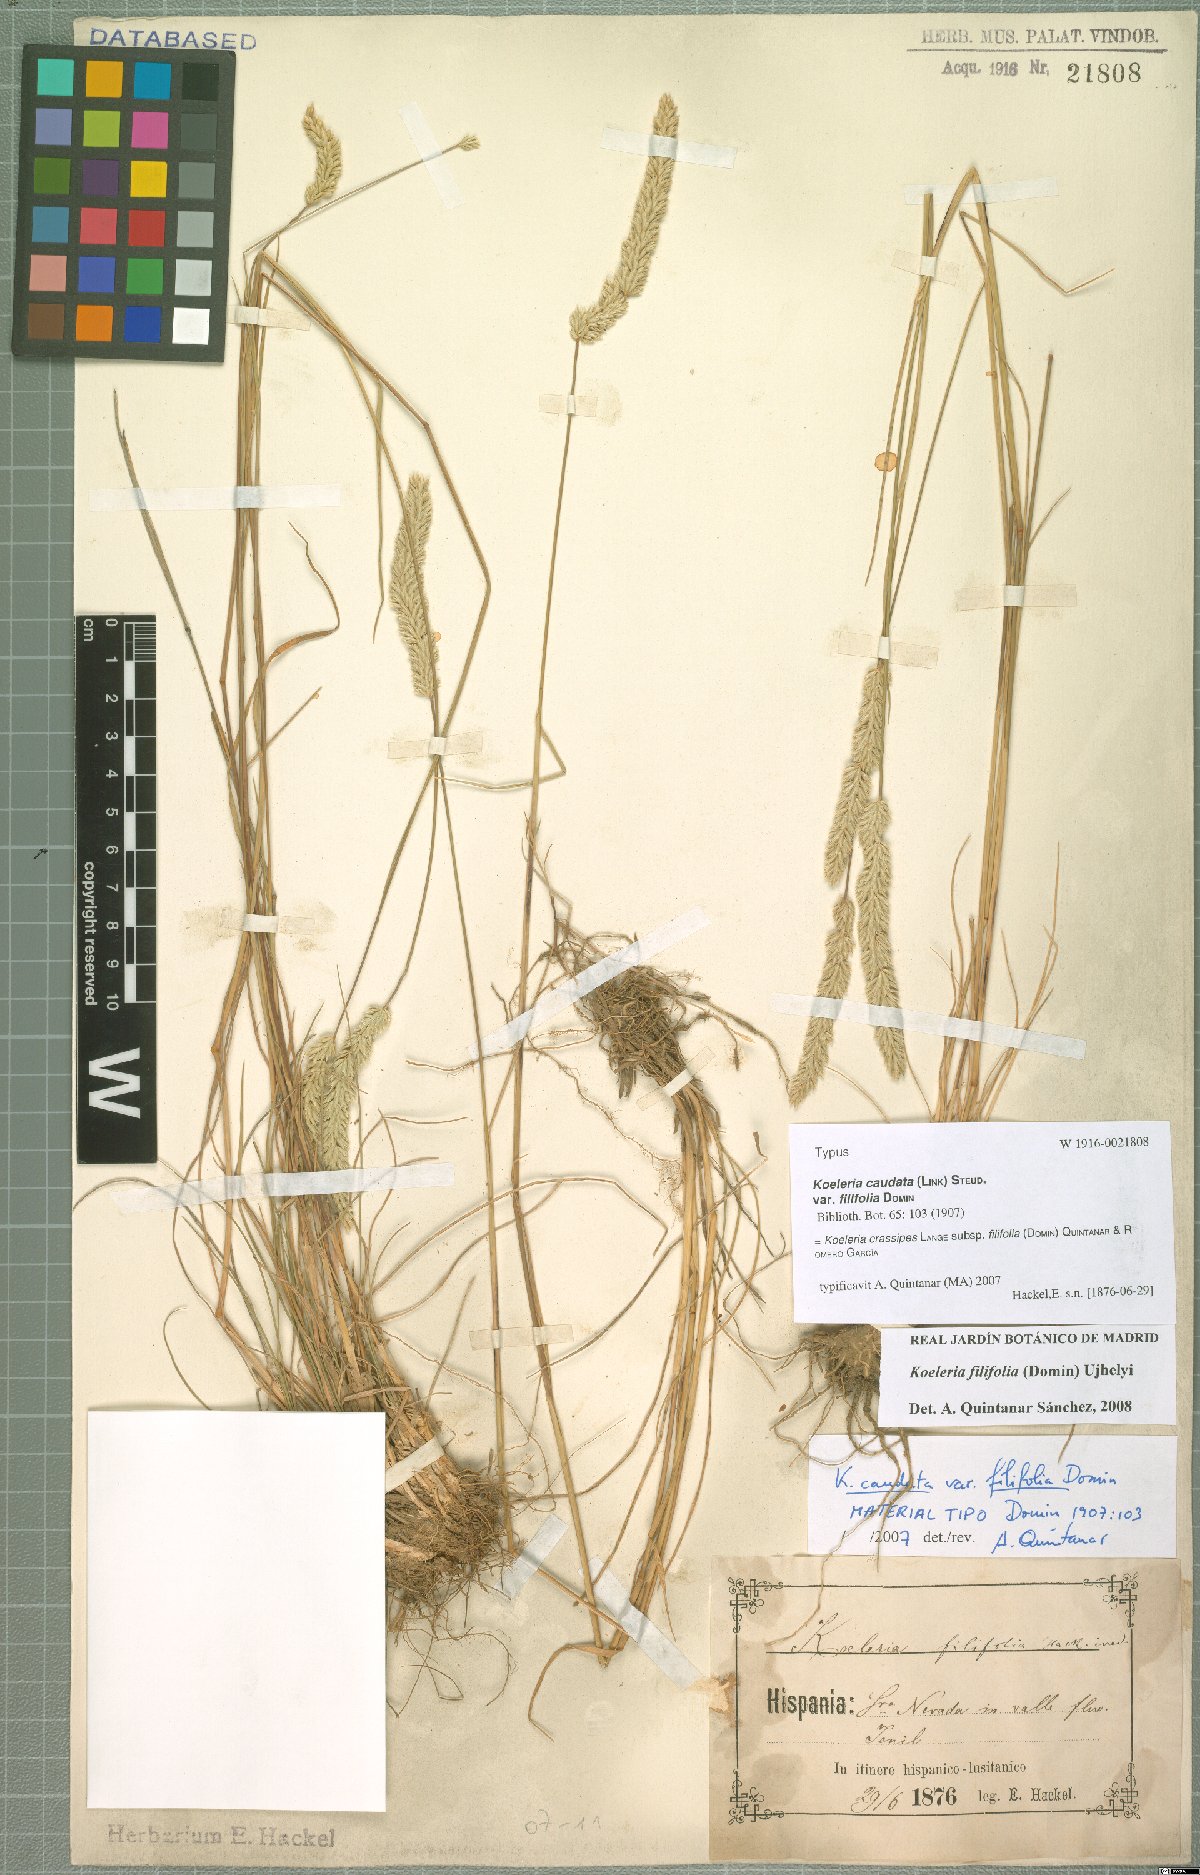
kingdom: Plantae
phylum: Tracheophyta
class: Liliopsida
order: Poales
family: Poaceae
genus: Koeleria
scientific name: Koeleria crassipes
